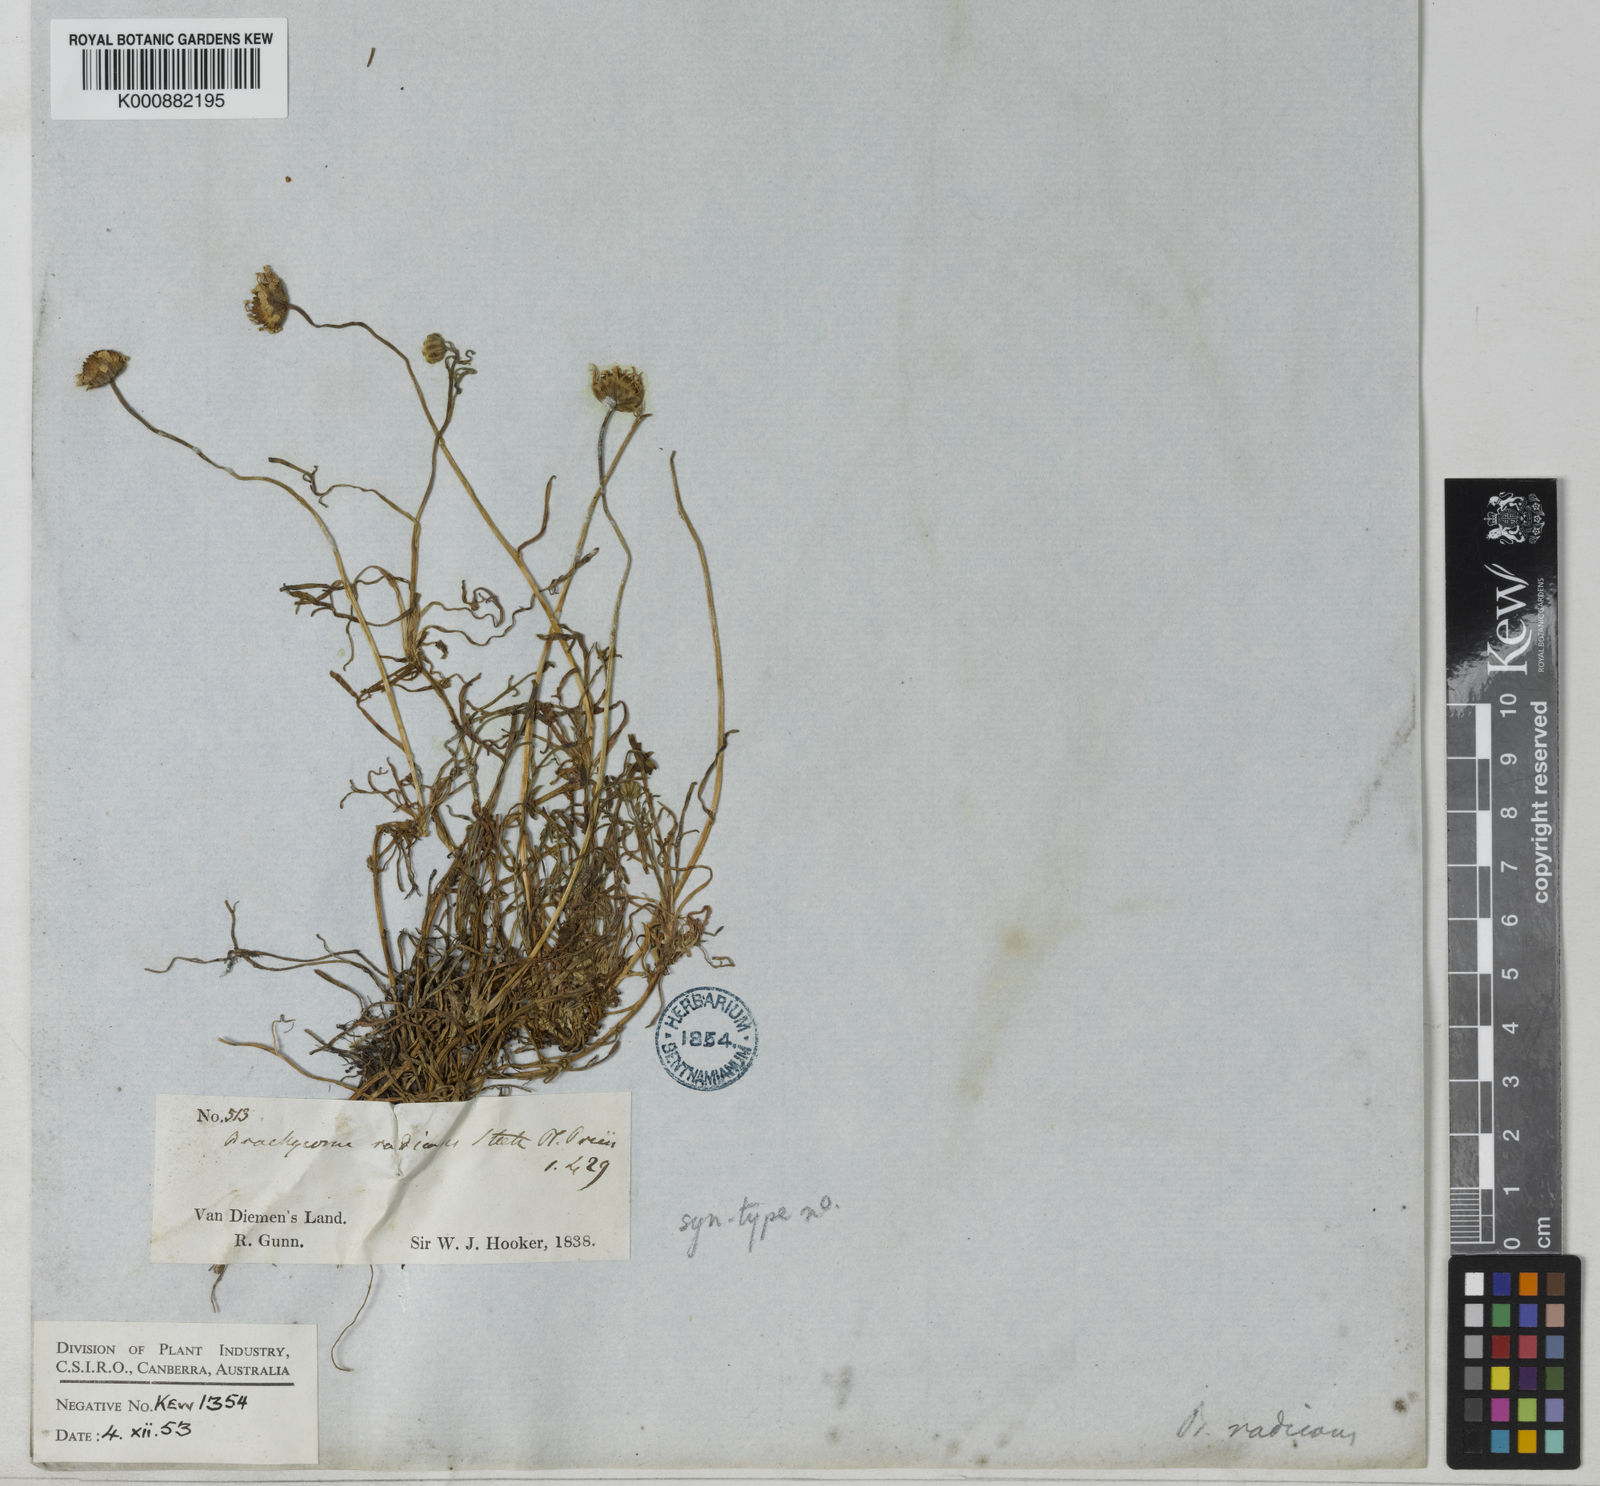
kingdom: Plantae
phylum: Tracheophyta
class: Magnoliopsida
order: Asterales
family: Asteraceae
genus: Brachyscome
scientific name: Brachyscome radicans
